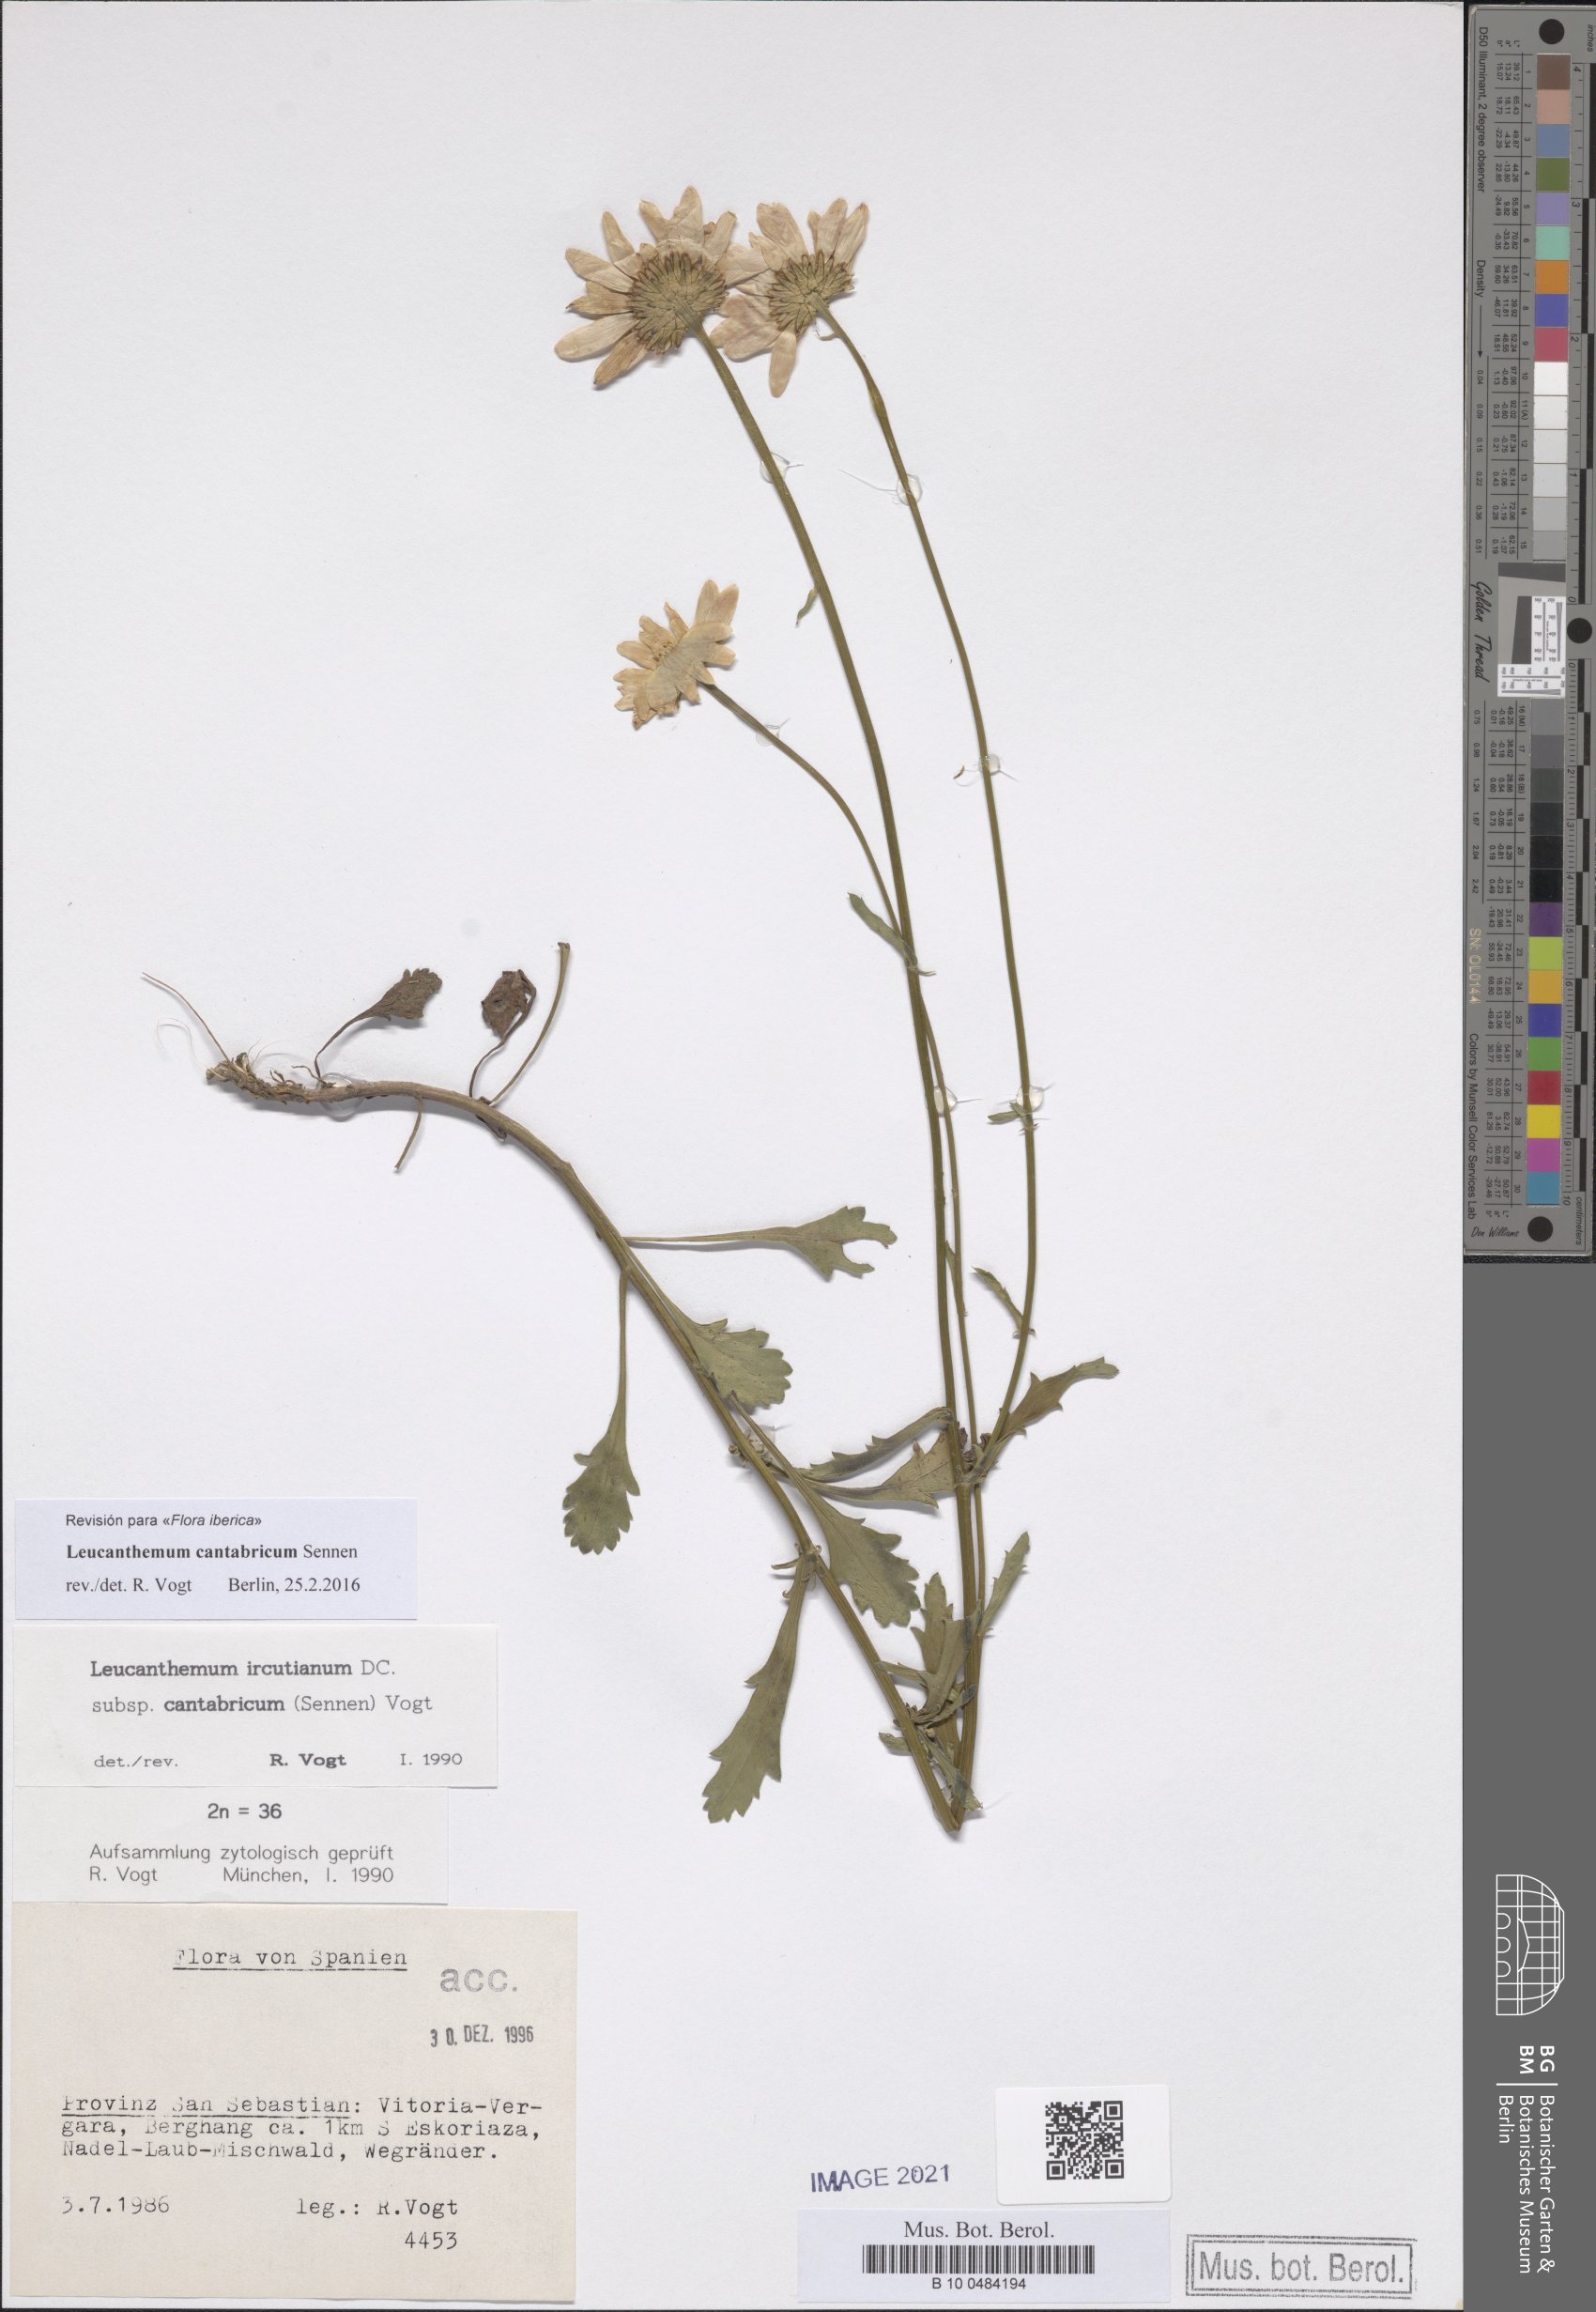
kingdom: Plantae
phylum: Tracheophyta
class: Magnoliopsida
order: Asterales
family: Asteraceae
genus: Leucanthemum
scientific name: Leucanthemum cantabricum
